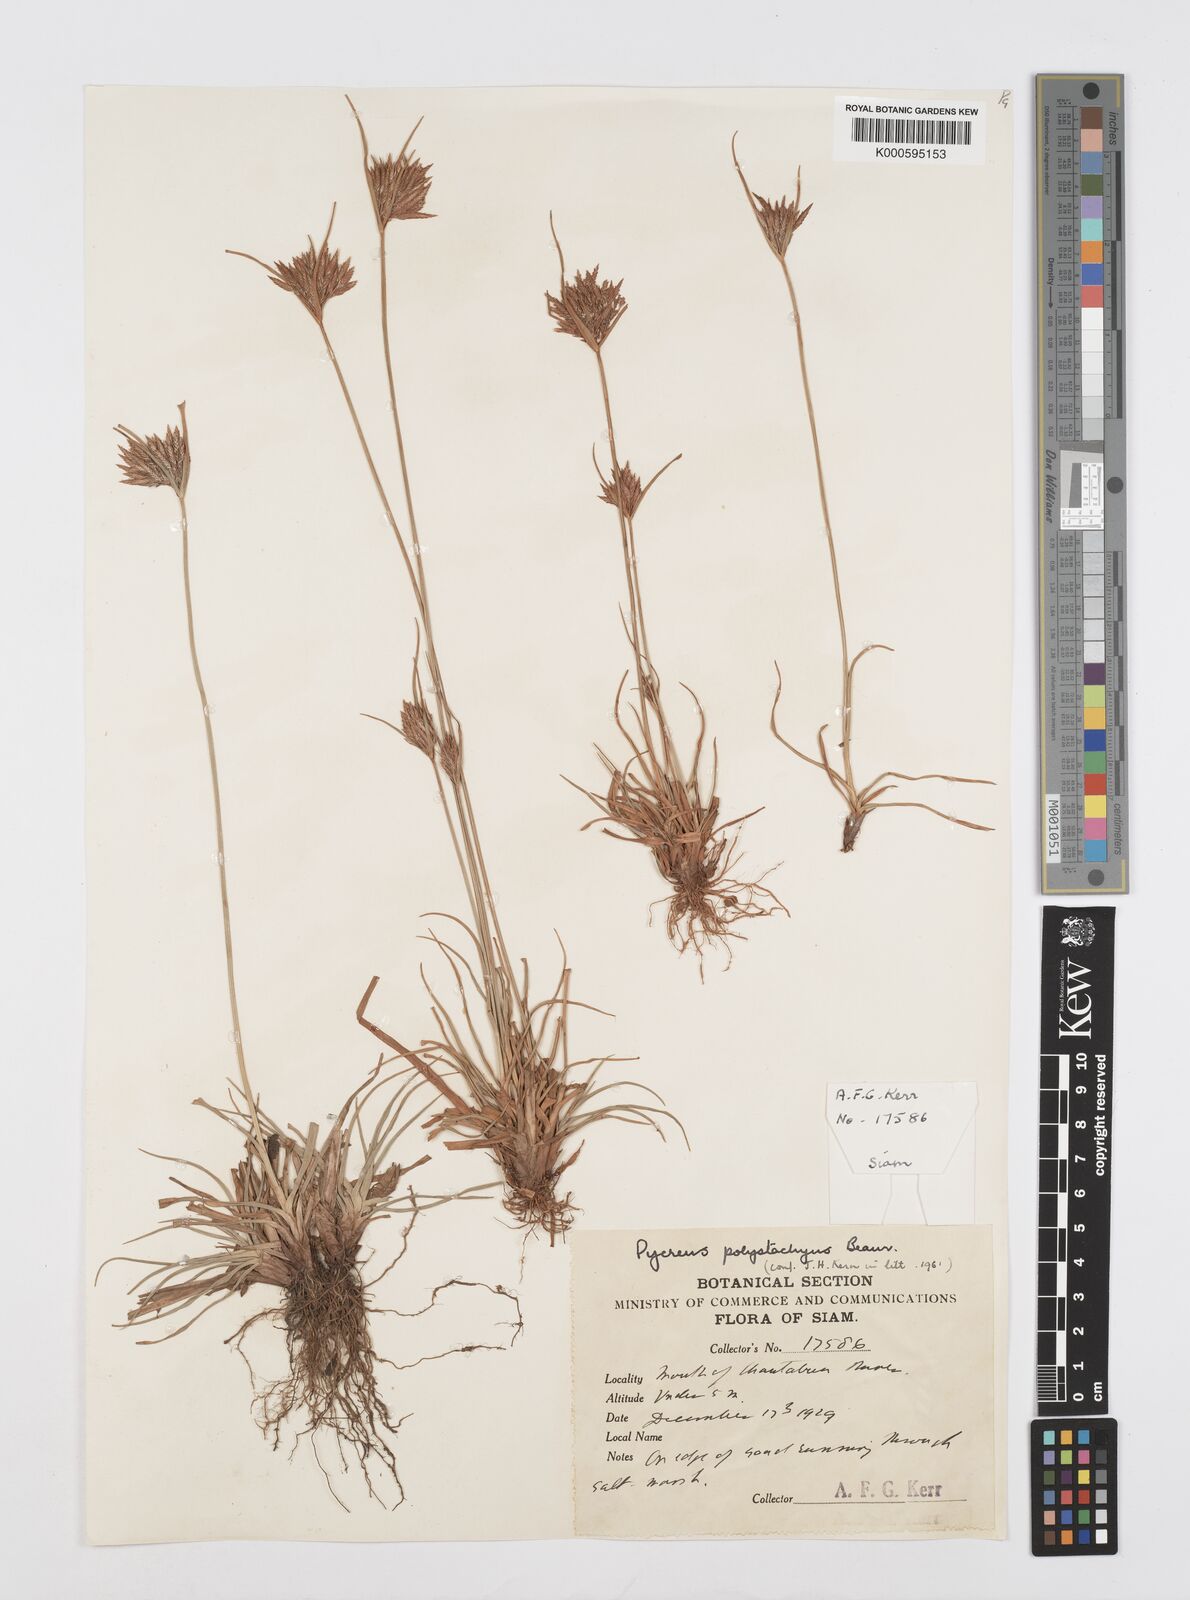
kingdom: Plantae
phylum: Tracheophyta
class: Liliopsida
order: Poales
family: Cyperaceae
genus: Cyperus
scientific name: Cyperus polystachyos
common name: Bunchy flat sedge
